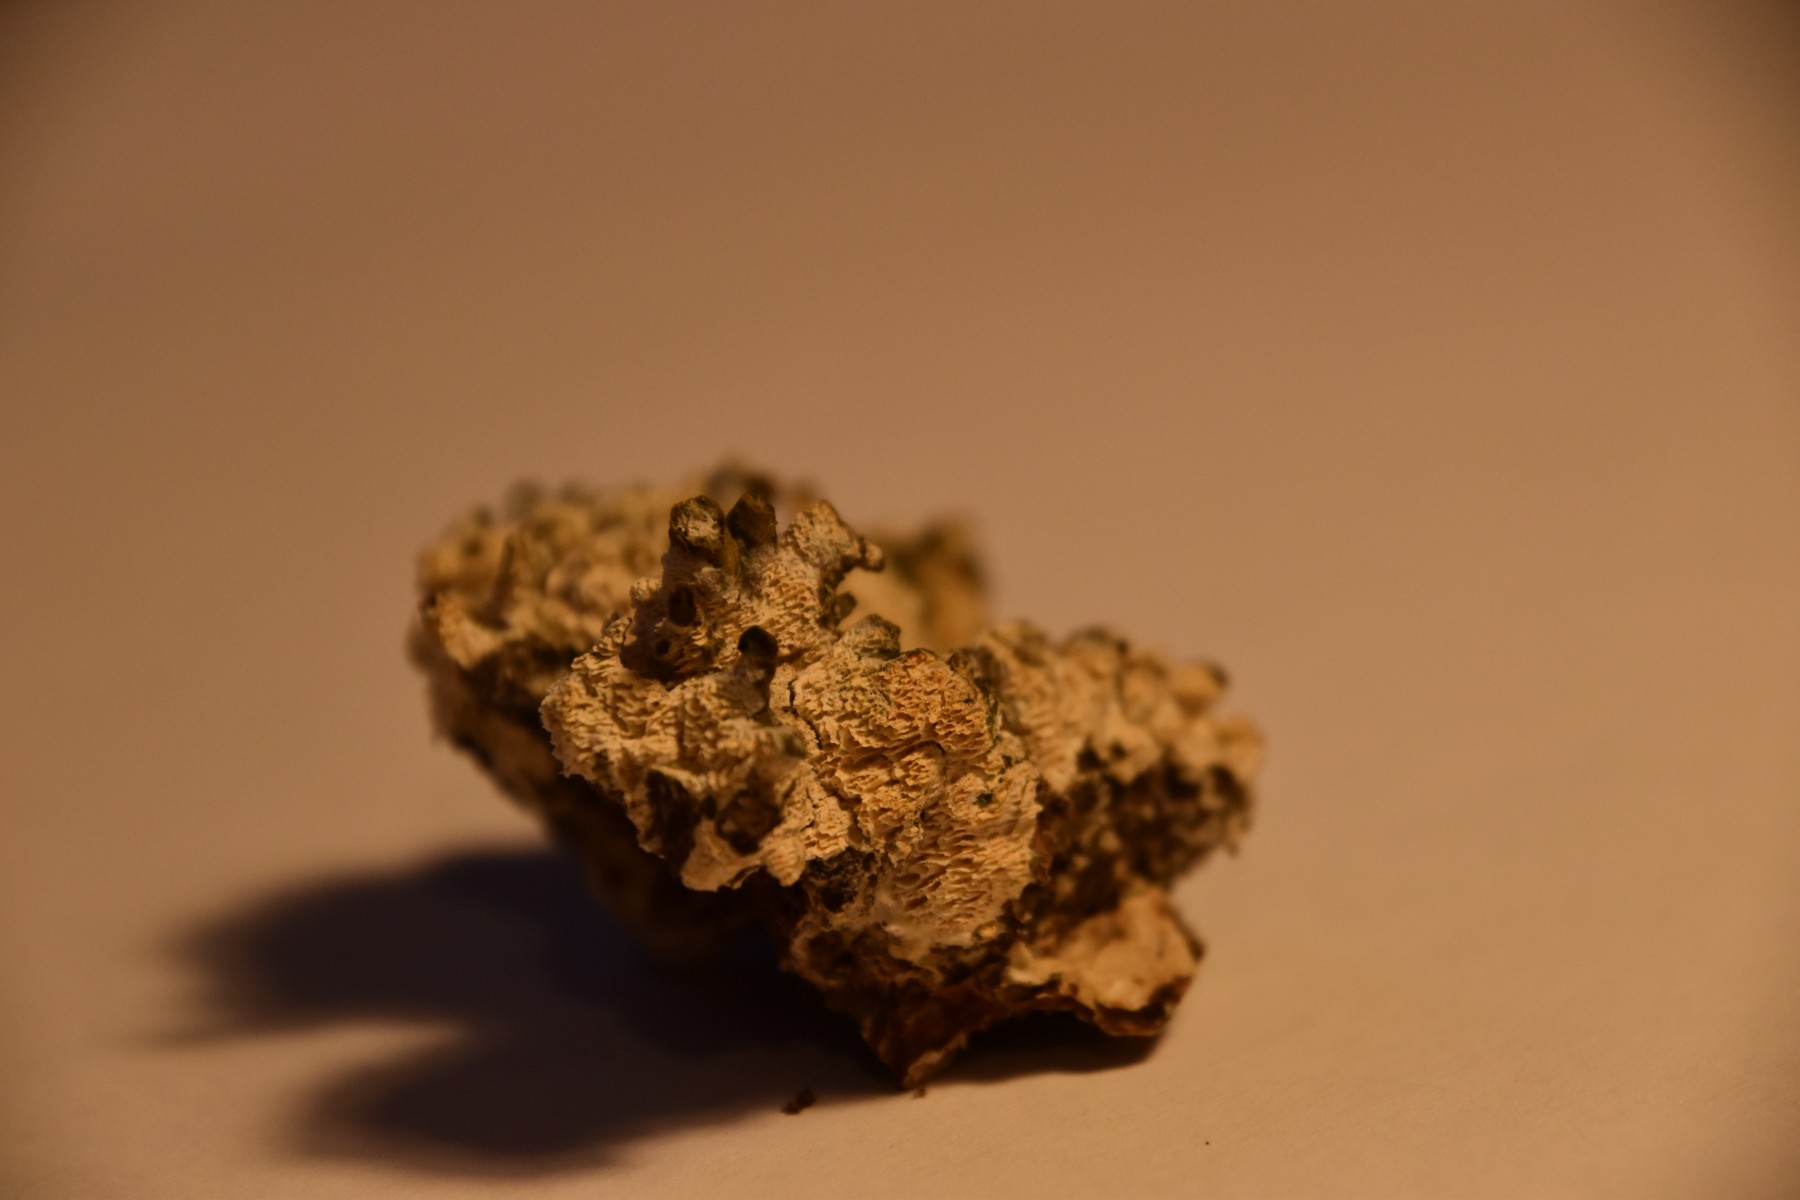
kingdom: Fungi
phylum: Basidiomycota
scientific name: Basidiomycota
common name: basidiesvampe
